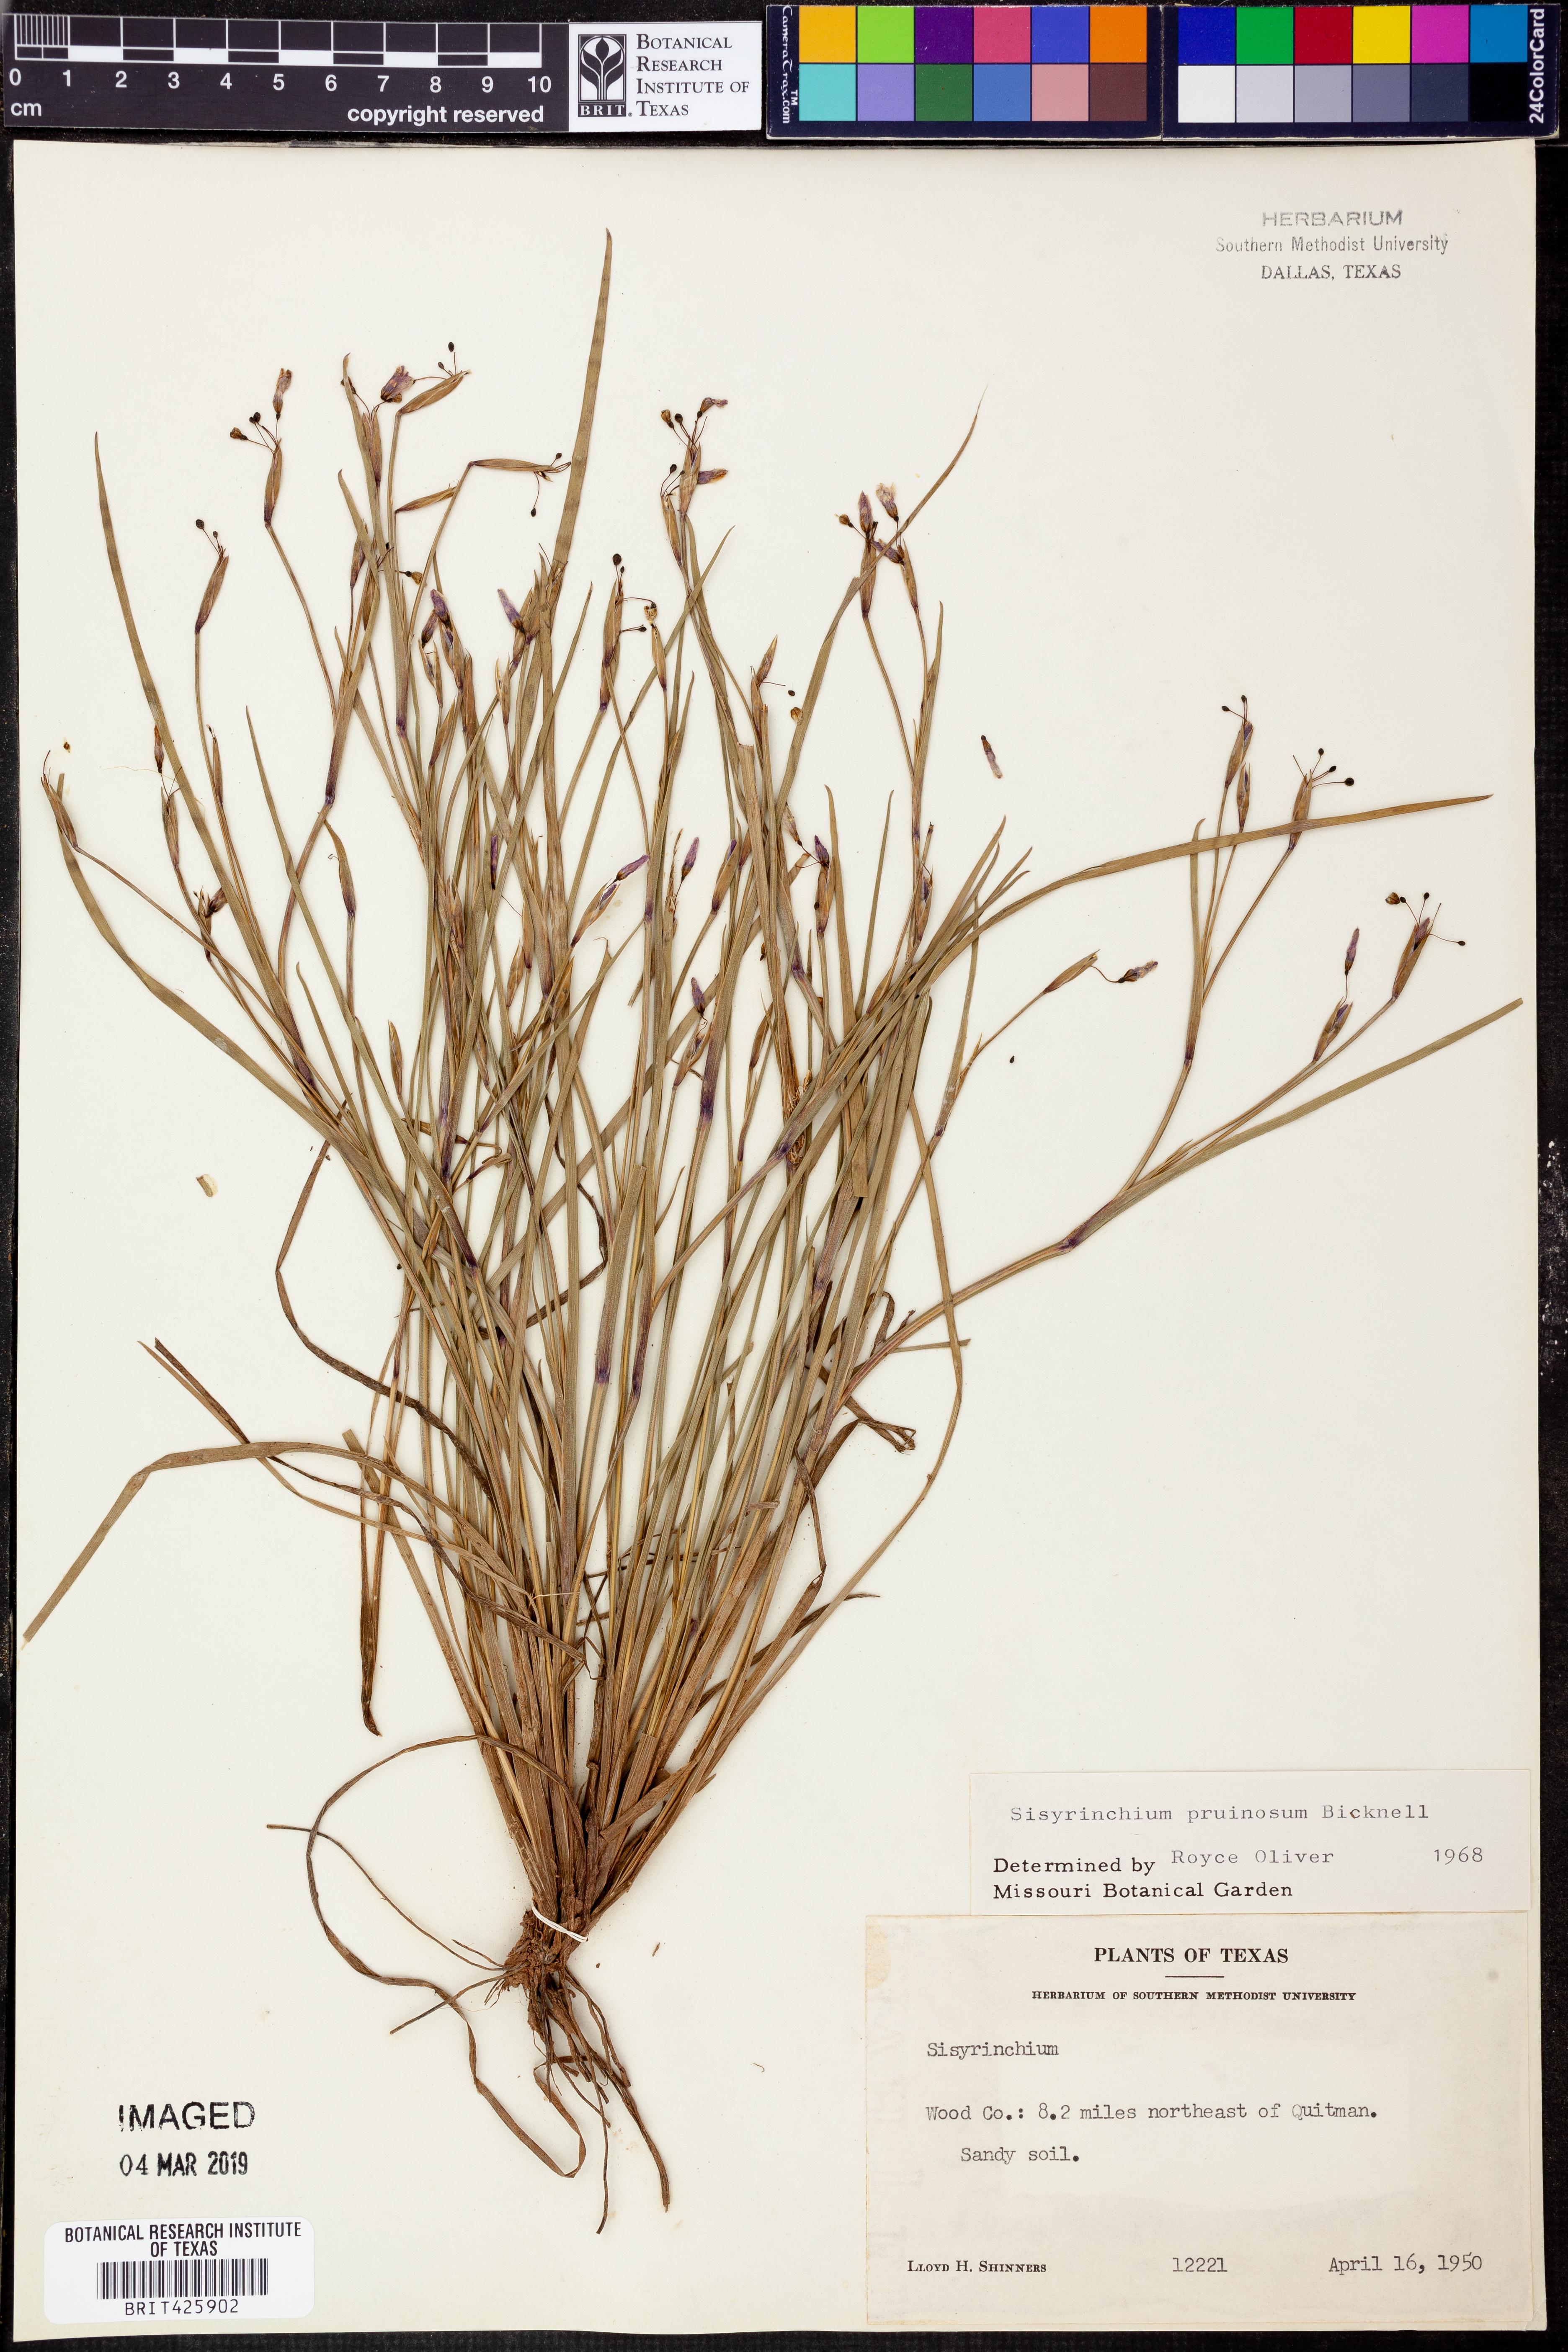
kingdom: Plantae
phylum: Tracheophyta
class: Liliopsida
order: Asparagales
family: Iridaceae
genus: Sisyrinchium
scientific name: Sisyrinchium pruinosum
